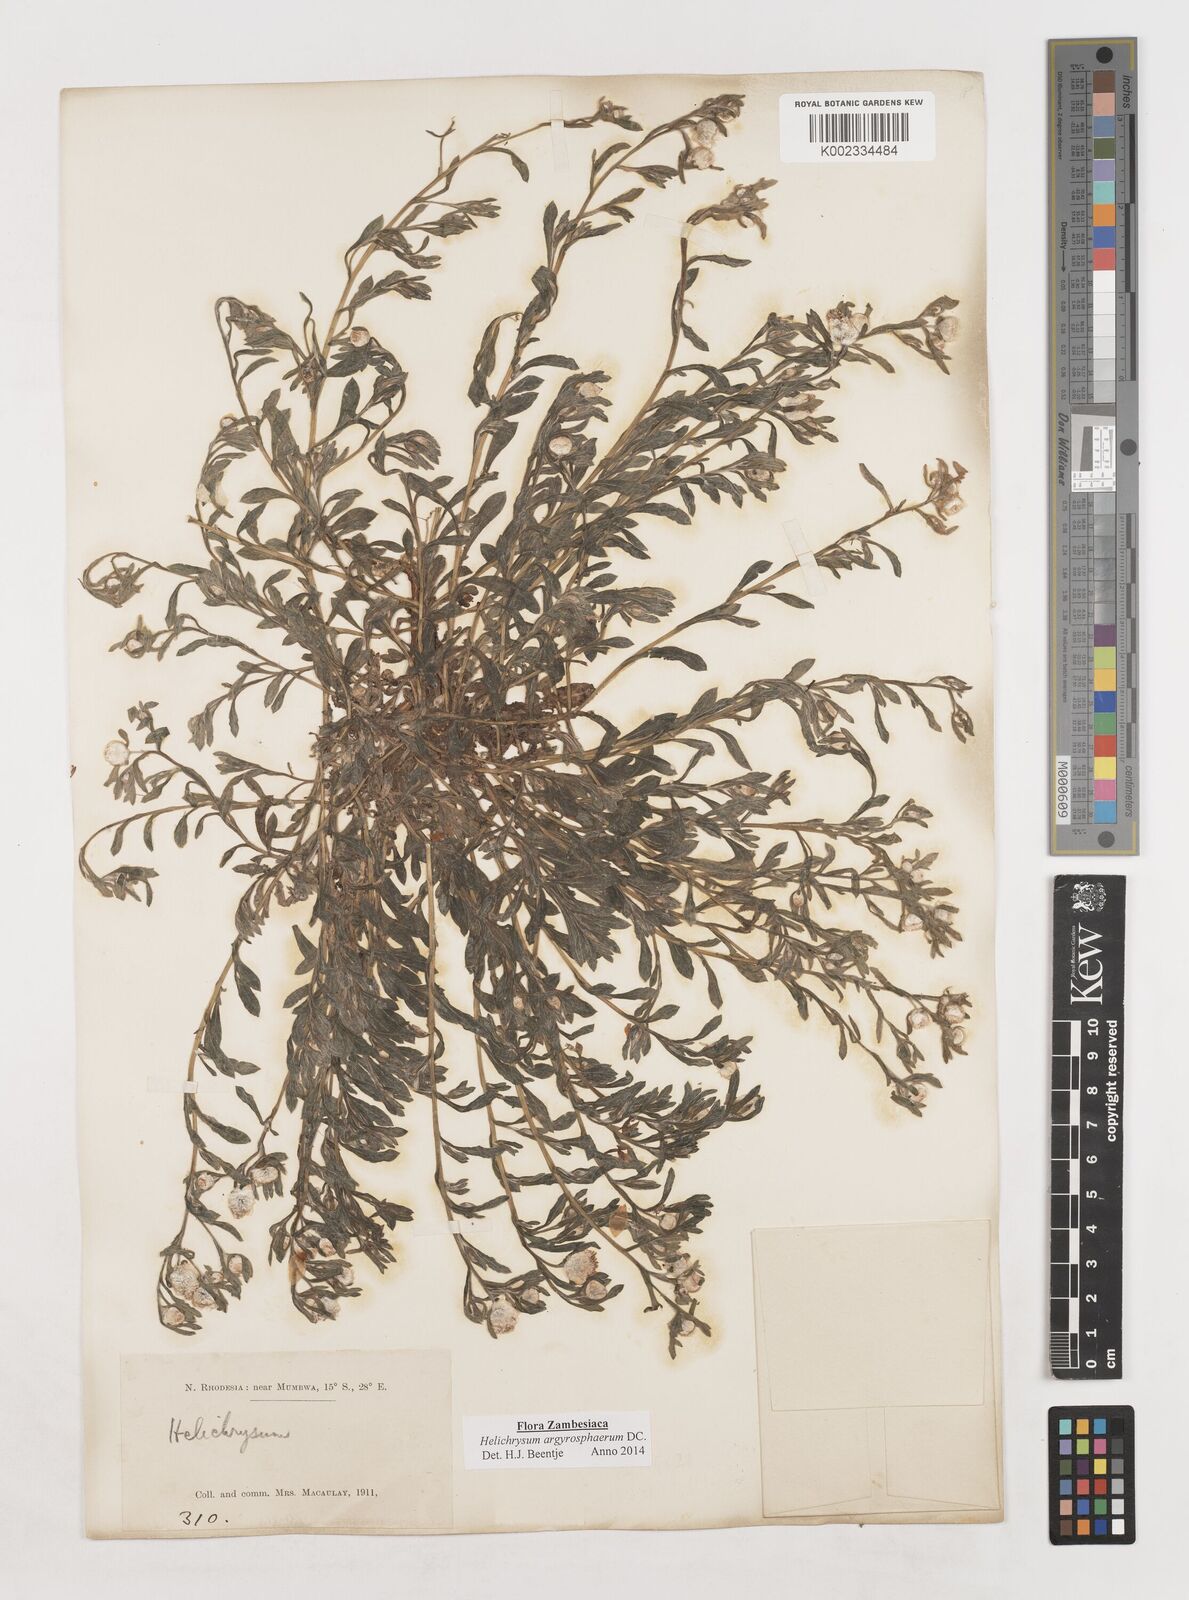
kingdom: Plantae
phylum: Tracheophyta
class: Magnoliopsida
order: Asterales
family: Asteraceae
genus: Helichrysum
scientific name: Helichrysum argyrosphaerum
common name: Wild everlasting
